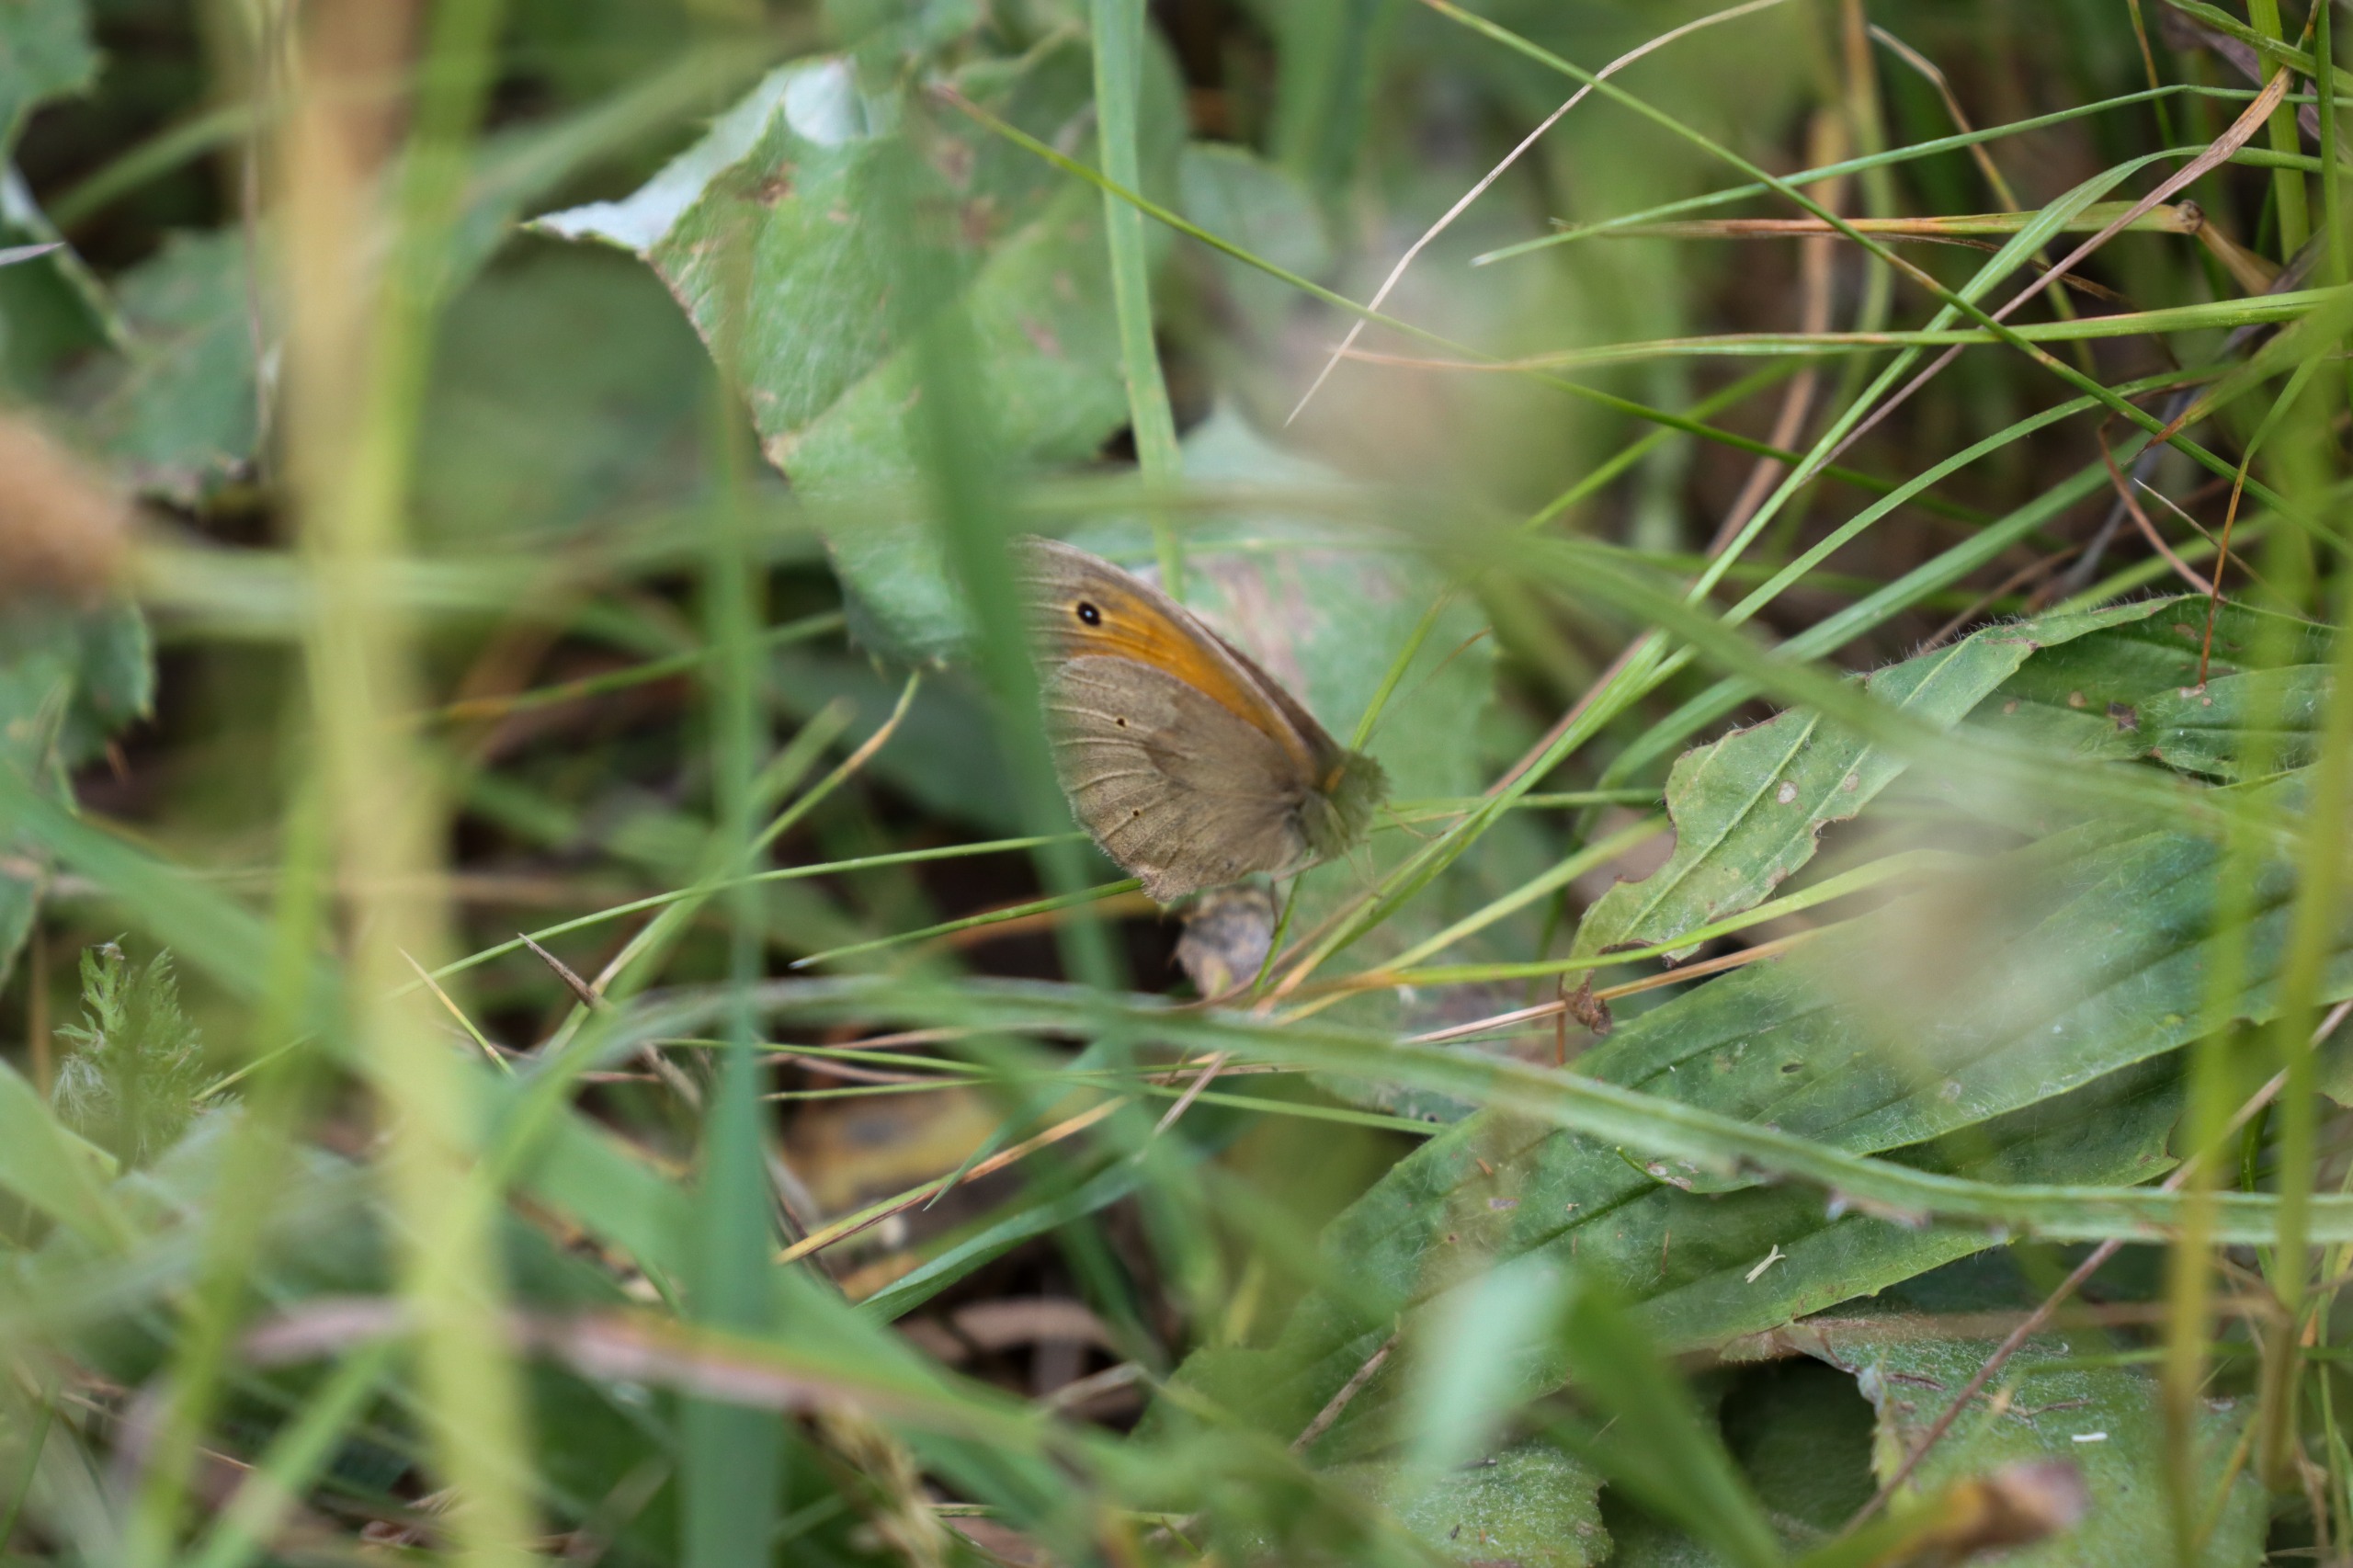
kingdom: Animalia
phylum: Arthropoda
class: Insecta
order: Lepidoptera
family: Nymphalidae
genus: Maniola
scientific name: Maniola jurtina
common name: Græsrandøje
